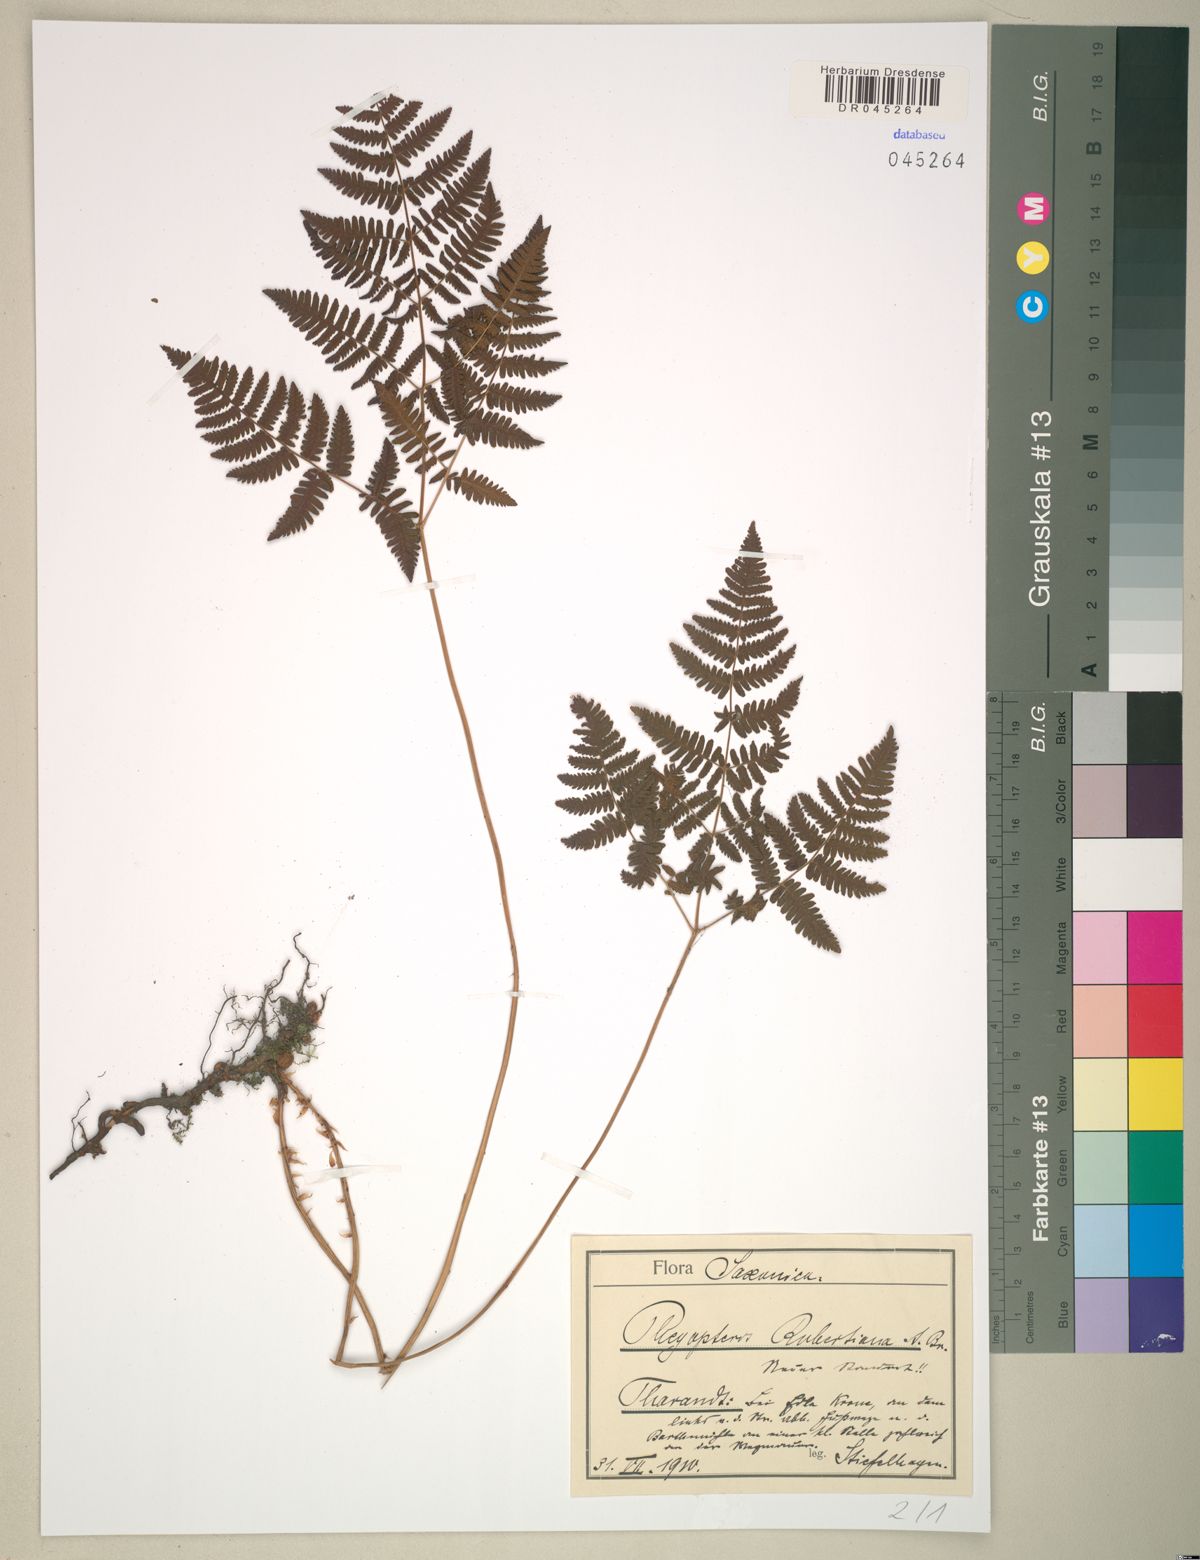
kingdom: Plantae
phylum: Tracheophyta
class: Polypodiopsida
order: Polypodiales
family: Cystopteridaceae
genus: Gymnocarpium
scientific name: Gymnocarpium robertianum
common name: Limestone fern
